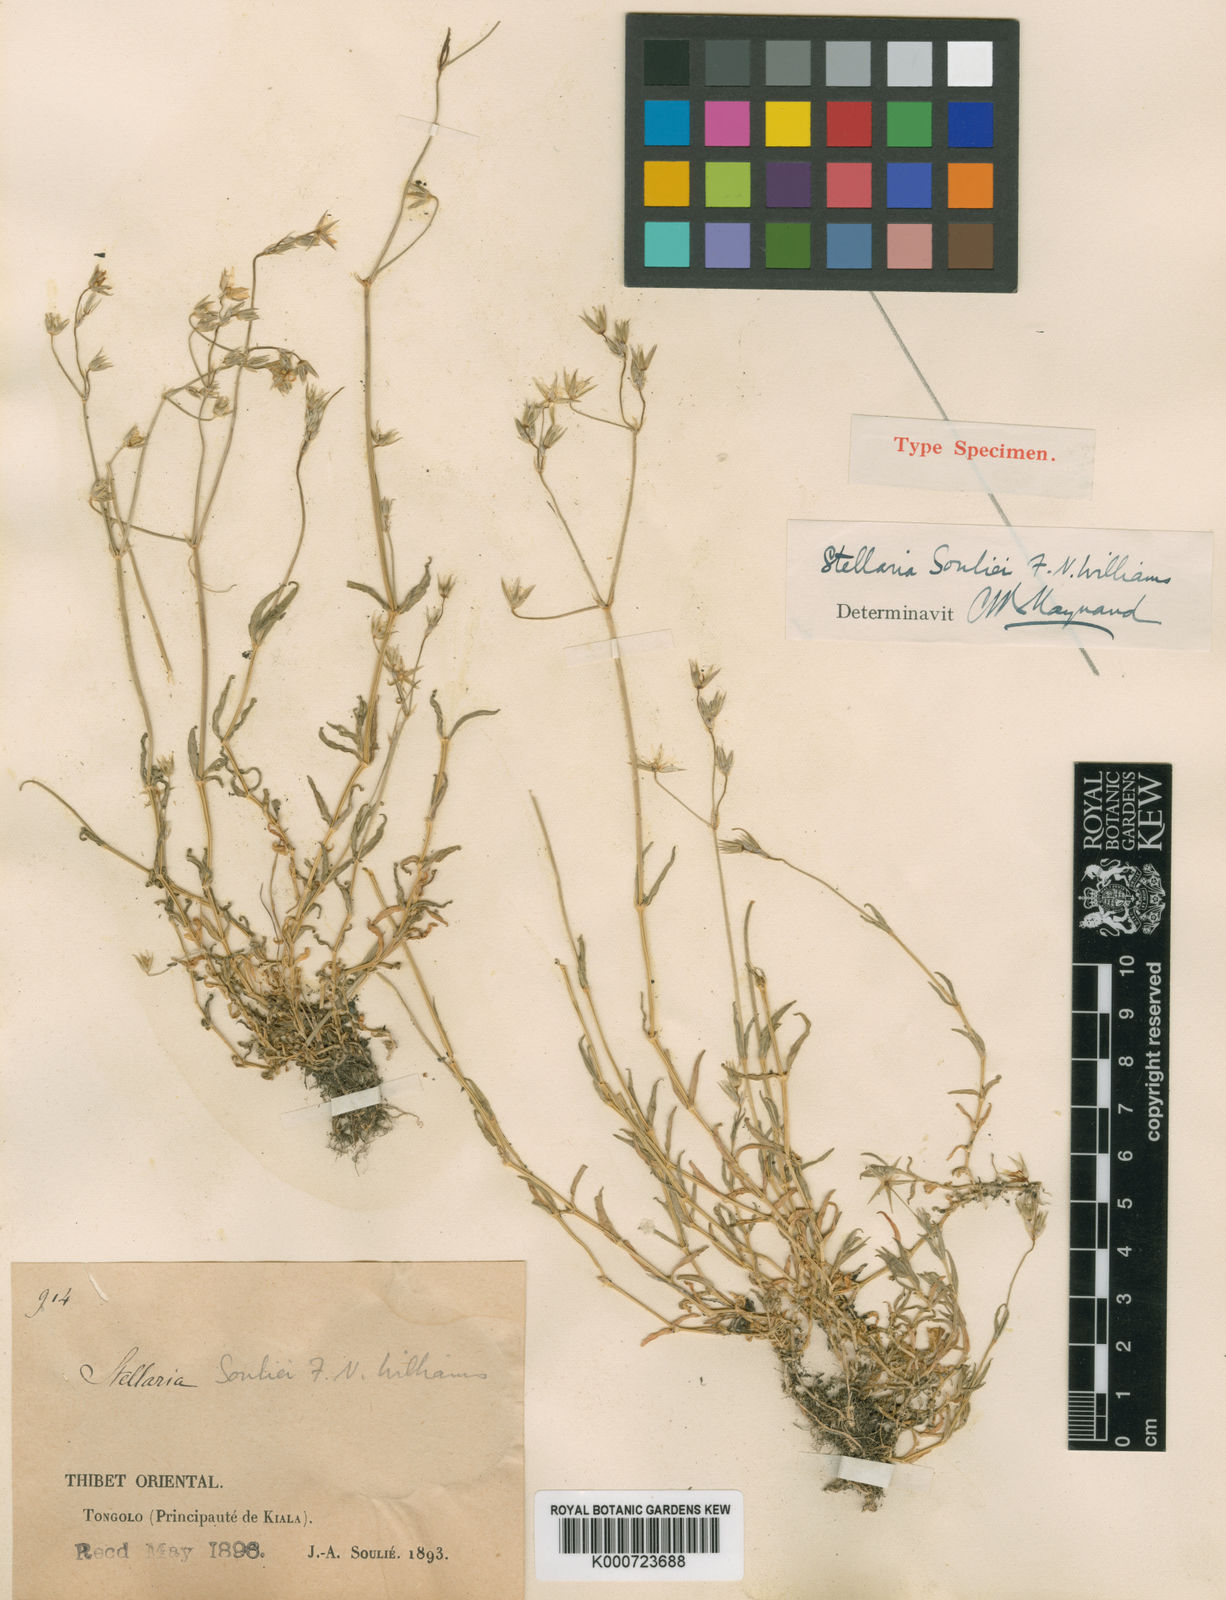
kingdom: Plantae
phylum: Tracheophyta
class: Magnoliopsida
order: Caryophyllales
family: Caryophyllaceae
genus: Stellaria
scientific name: Stellaria souliei
